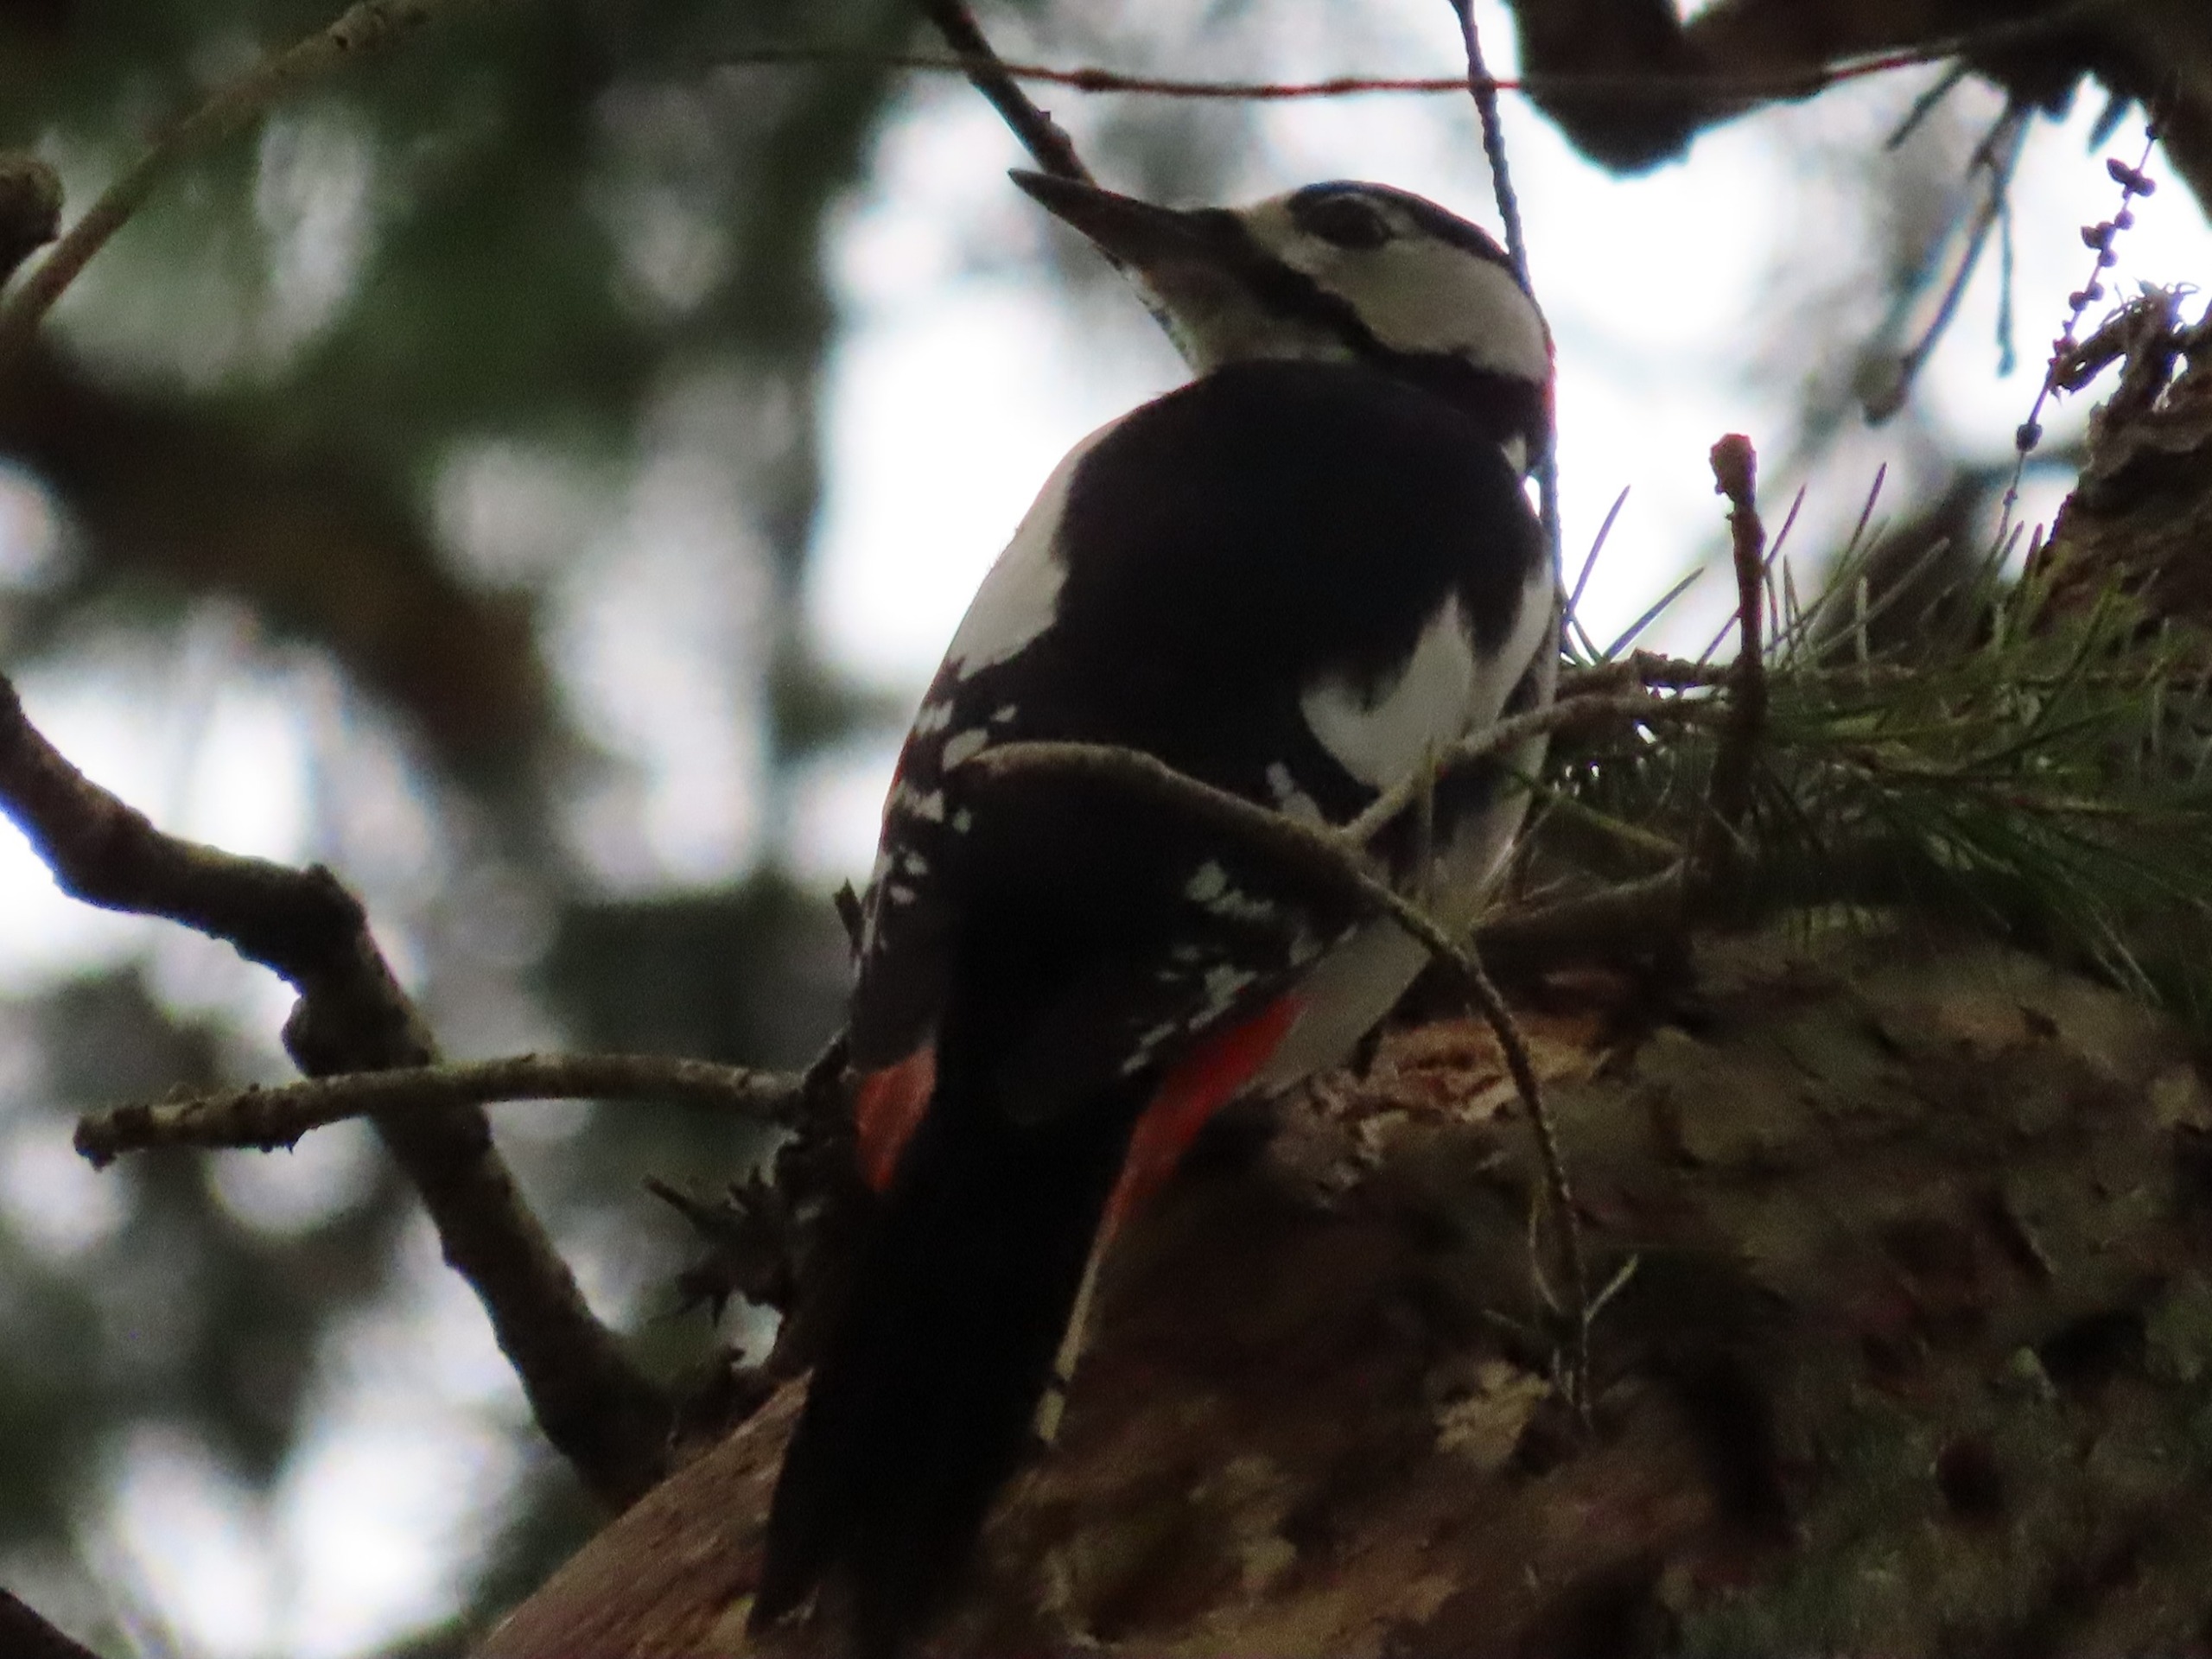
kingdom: Animalia
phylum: Chordata
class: Aves
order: Piciformes
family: Picidae
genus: Dendrocopos
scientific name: Dendrocopos major
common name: Stor flagspætte
